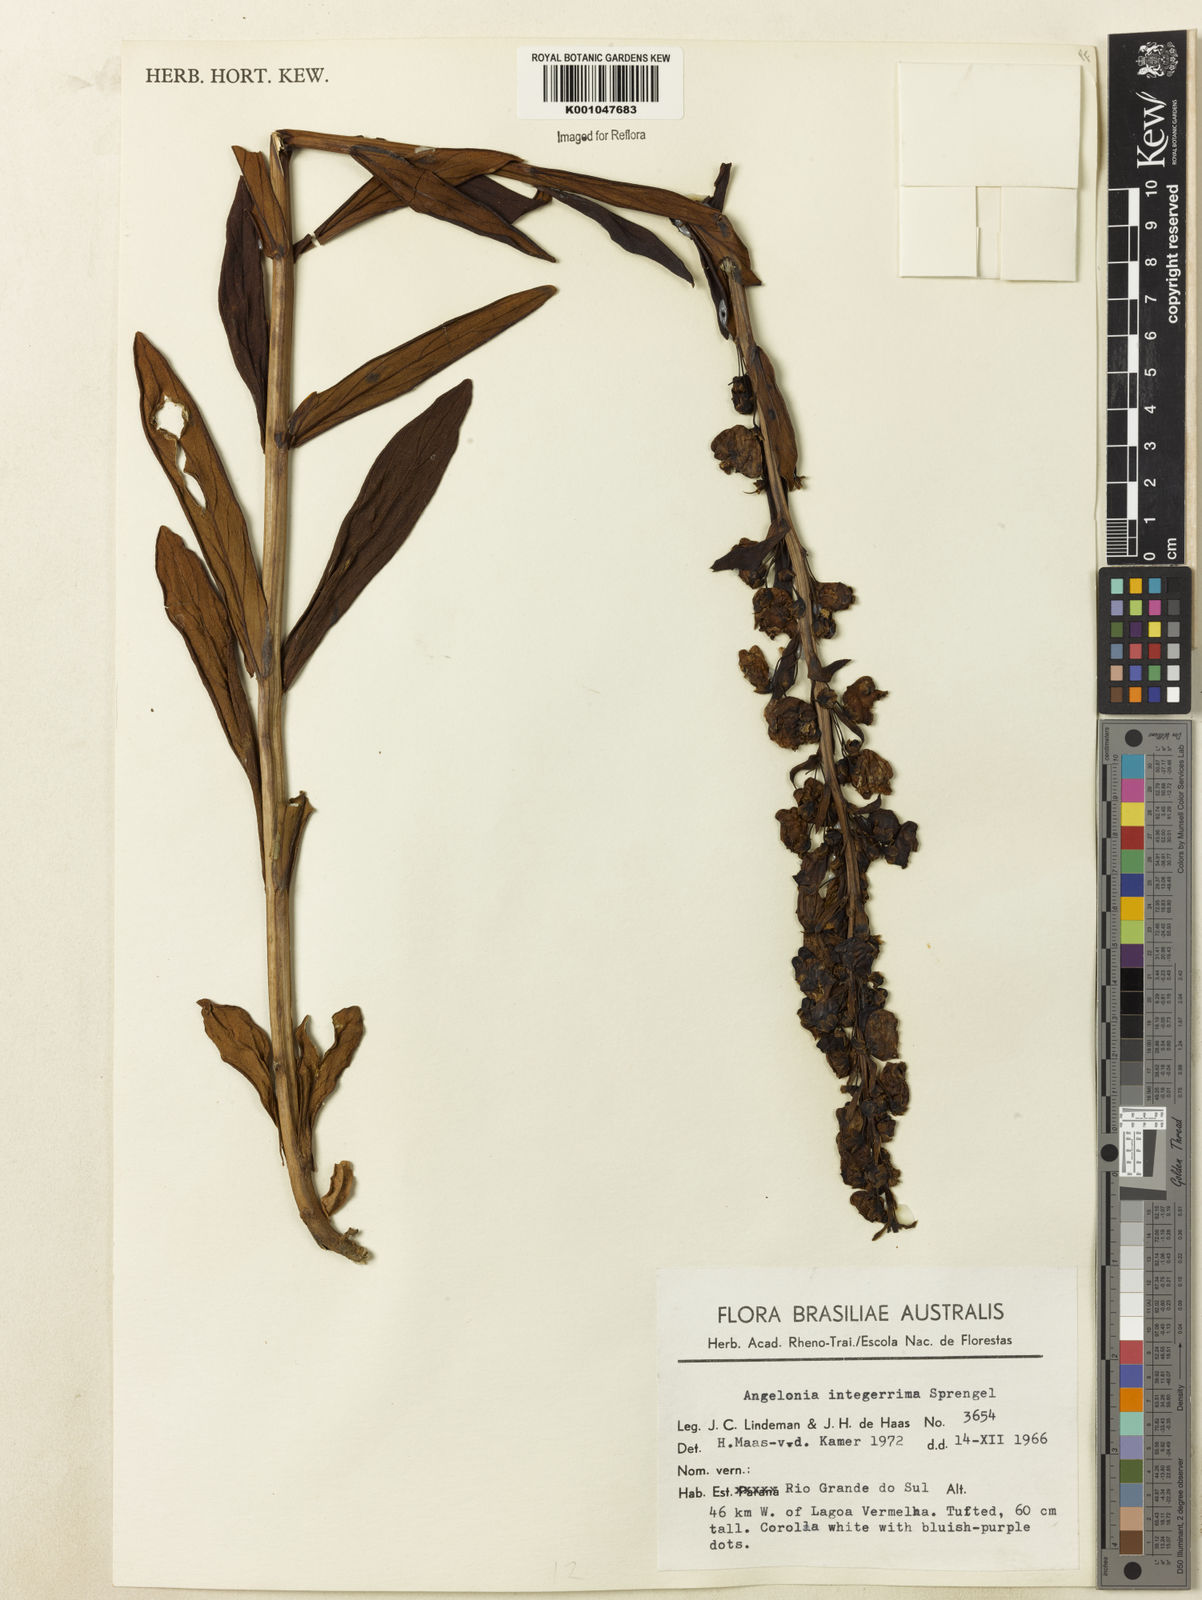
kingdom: Plantae
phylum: Tracheophyta
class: Magnoliopsida
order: Lamiales
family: Plantaginaceae
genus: Angelonia
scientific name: Angelonia integerrima
